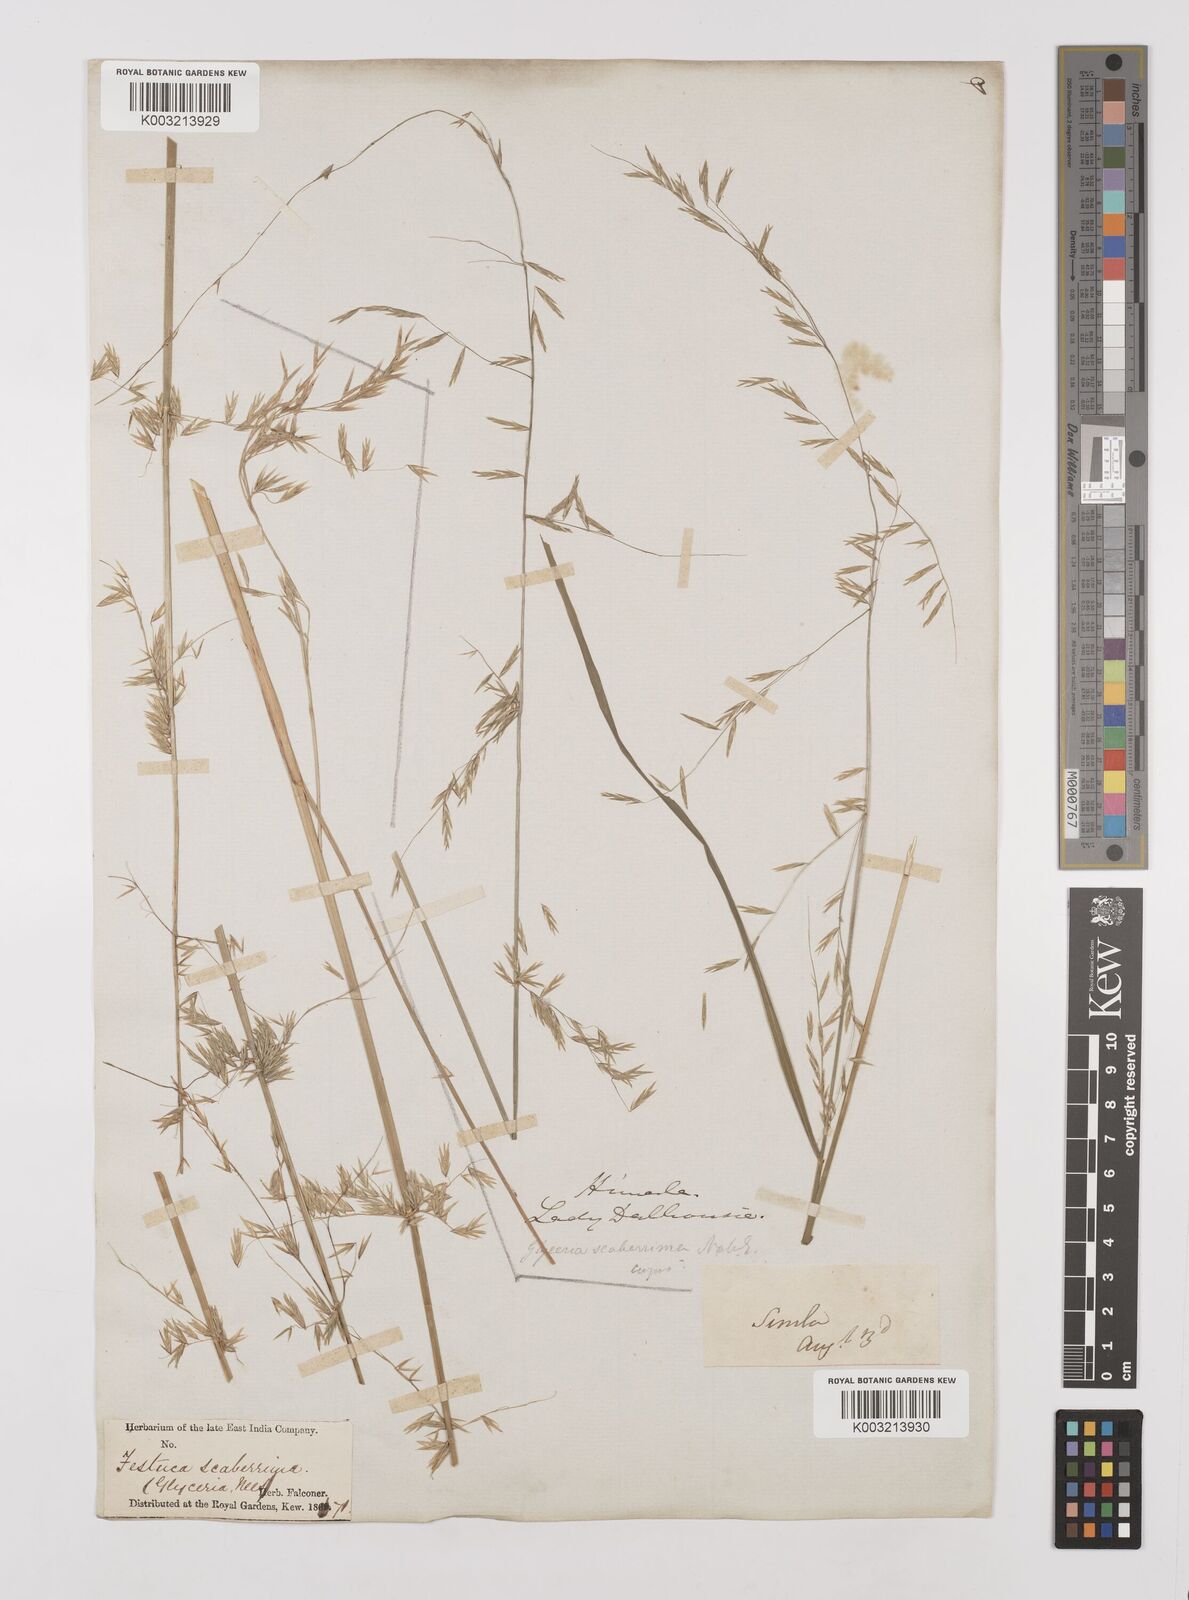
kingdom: Plantae
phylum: Tracheophyta
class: Liliopsida
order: Poales
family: Poaceae
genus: Melica
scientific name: Melica scaberrima
